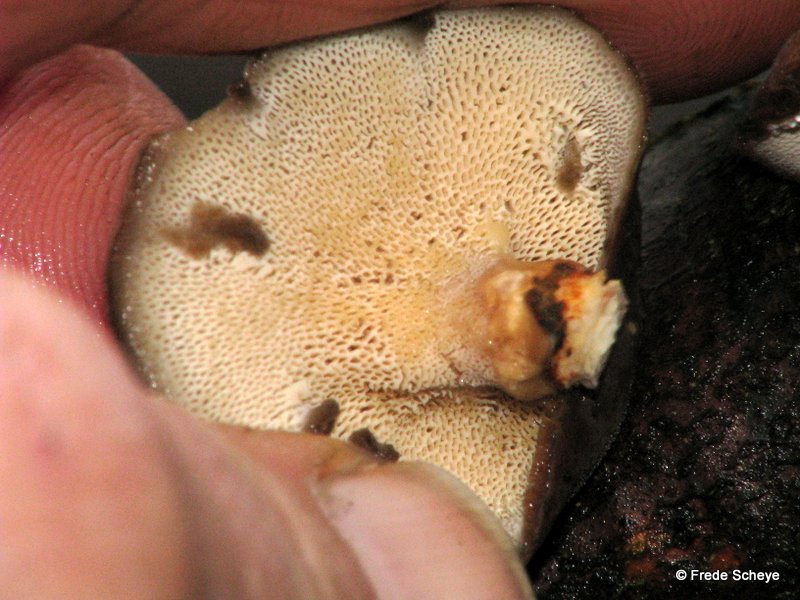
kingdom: Fungi
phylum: Basidiomycota
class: Agaricomycetes
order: Polyporales
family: Polyporaceae
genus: Lentinus
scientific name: Lentinus brumalis
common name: vinter-stilkporesvamp
